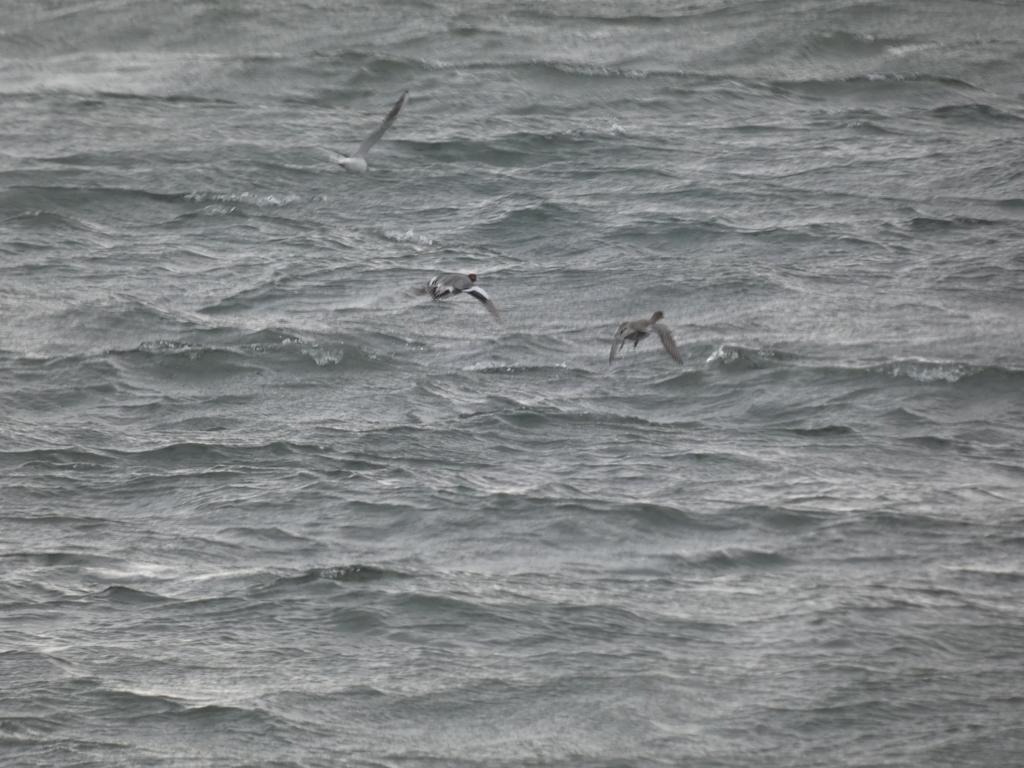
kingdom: Animalia
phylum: Chordata
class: Aves
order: Anseriformes
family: Anatidae
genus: Mareca
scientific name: Mareca penelope
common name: Pibeand
